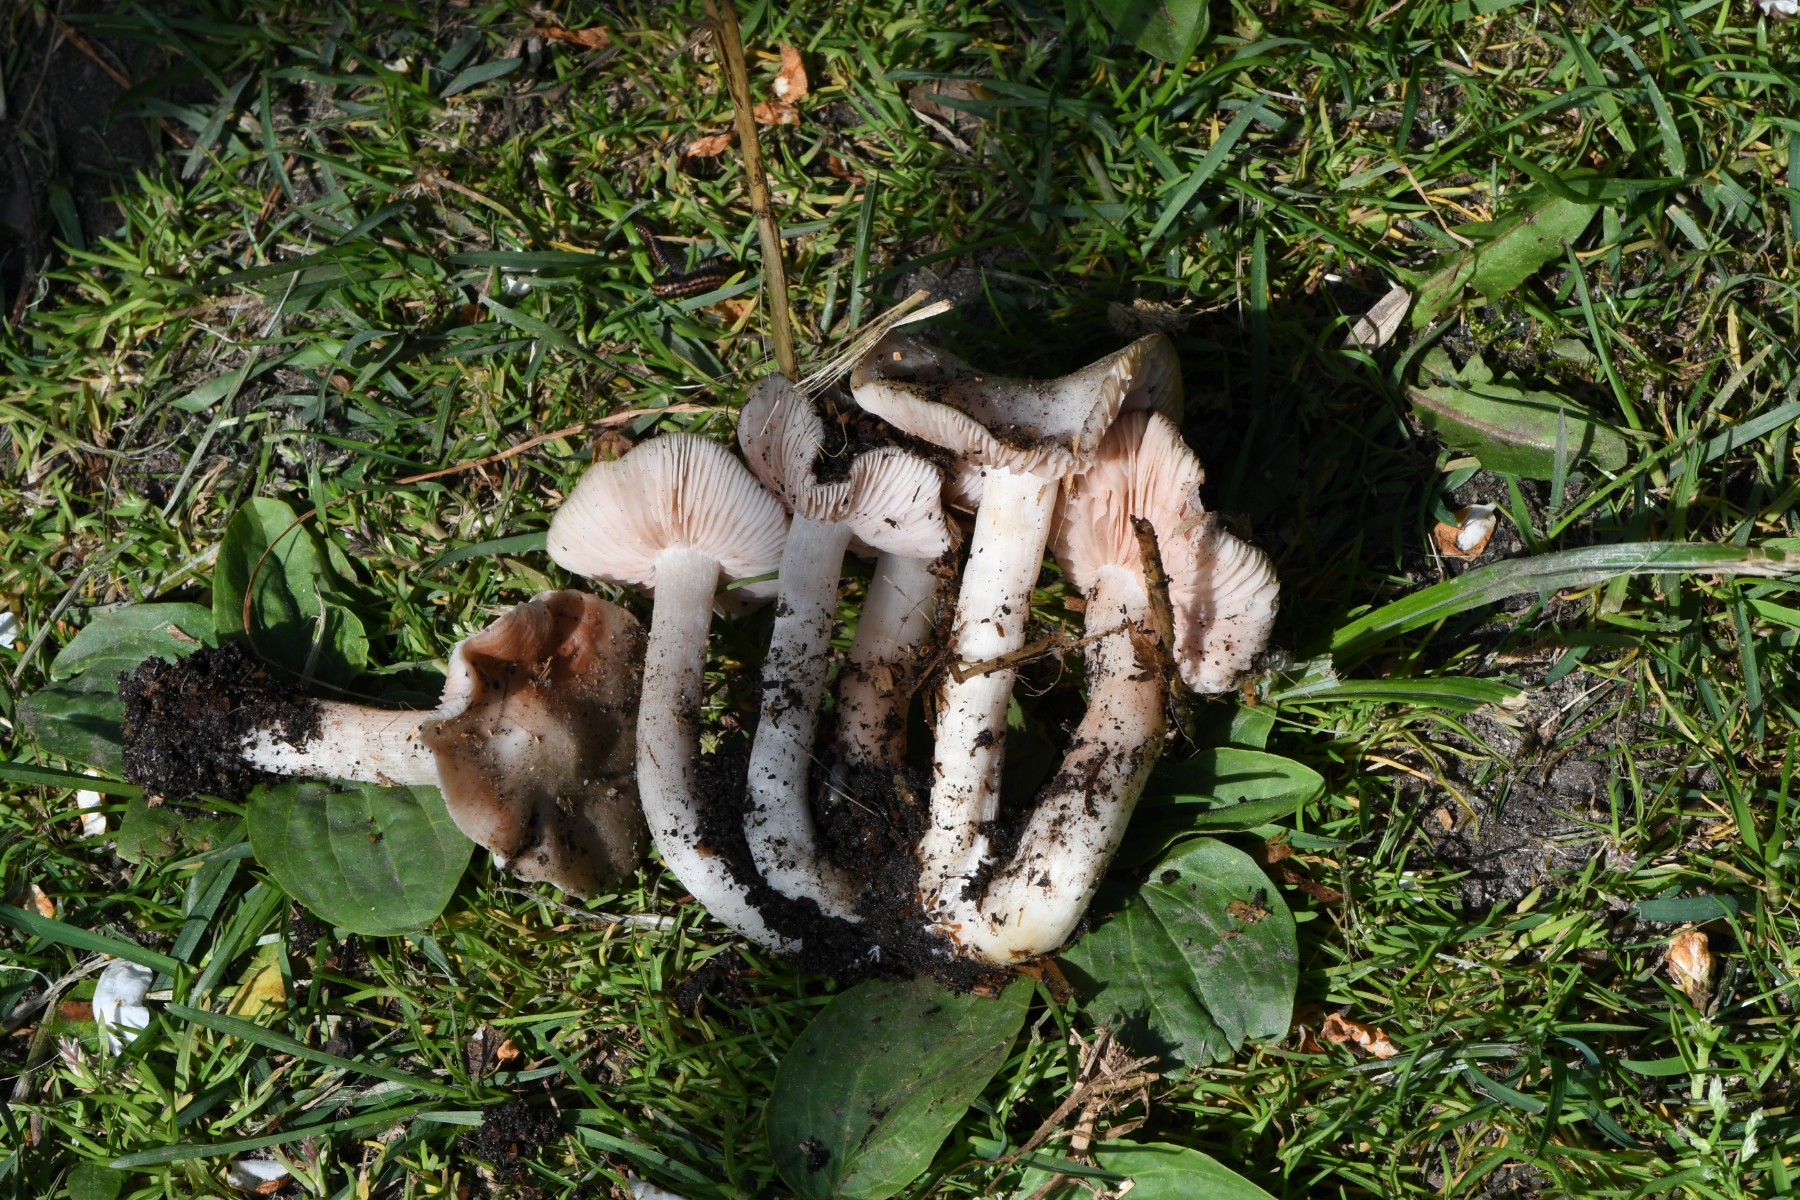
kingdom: Fungi
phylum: Basidiomycota
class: Agaricomycetes
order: Agaricales
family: Entolomataceae
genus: Entoloma
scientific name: Entoloma
